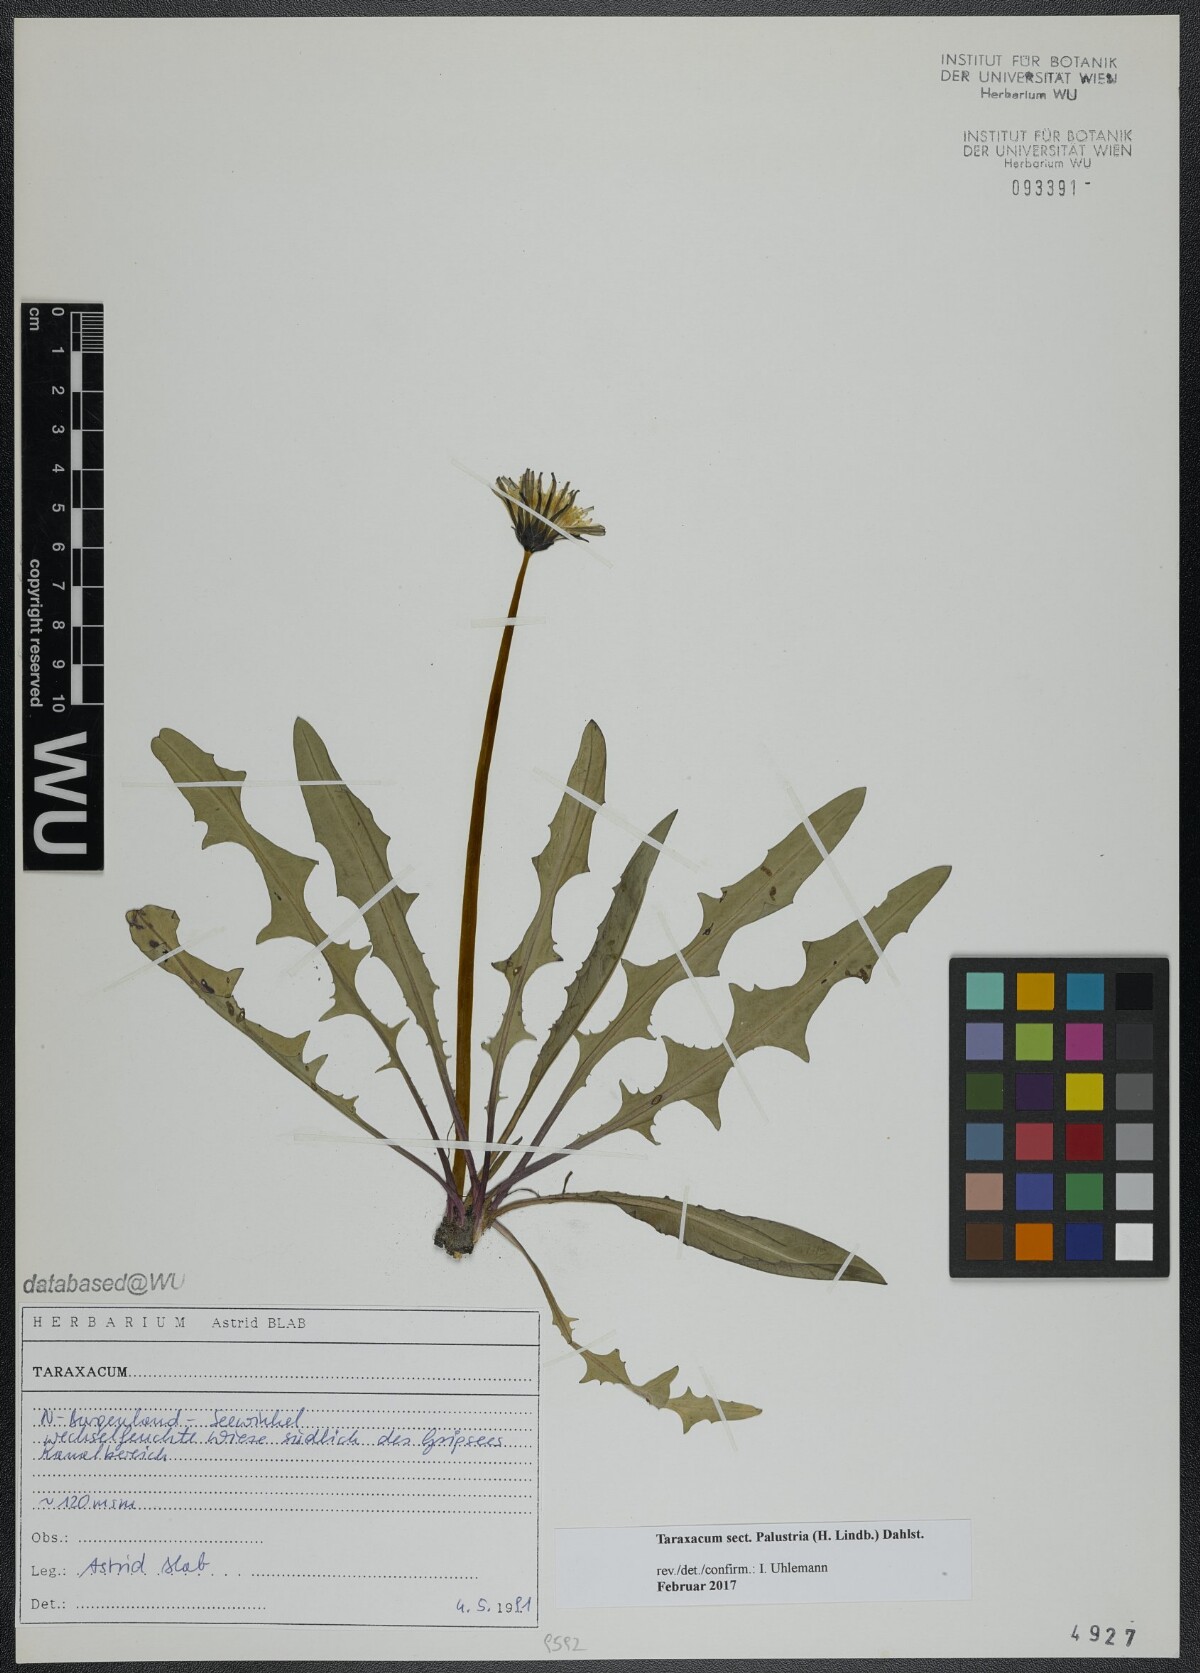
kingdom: Plantae
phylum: Tracheophyta
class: Magnoliopsida
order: Asterales
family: Asteraceae
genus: Taraxacum
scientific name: Taraxacum
